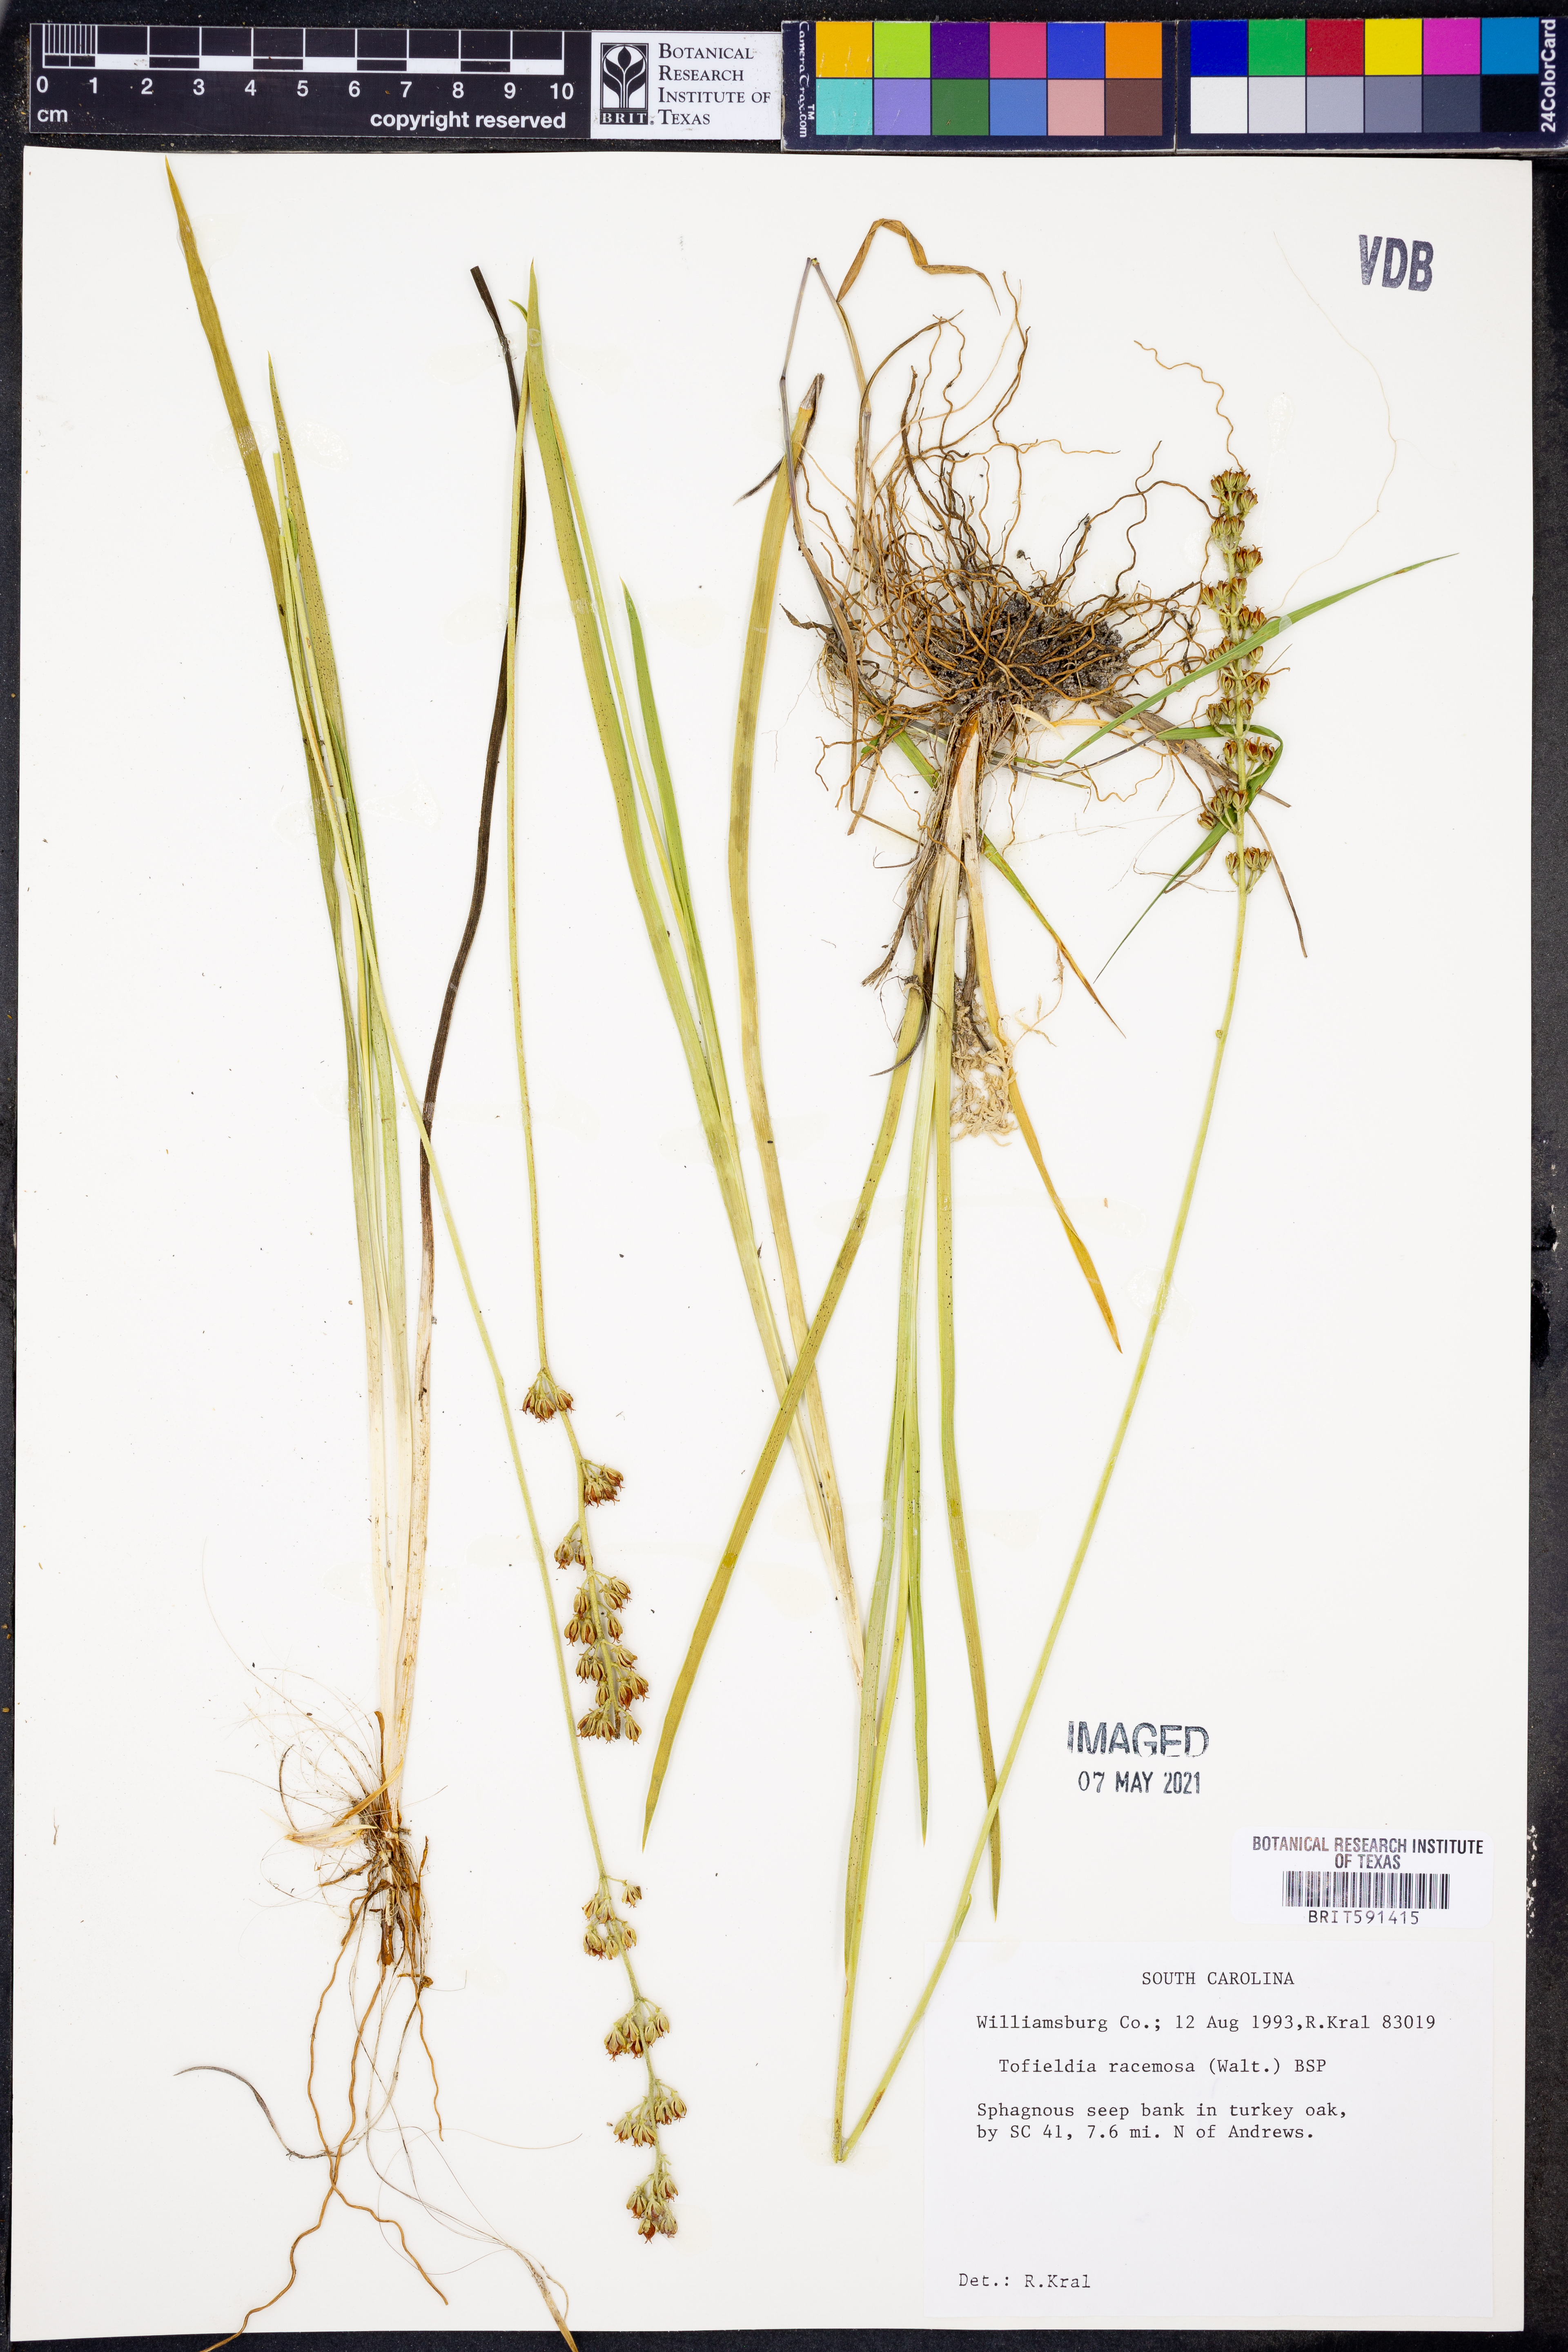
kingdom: Plantae
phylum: Tracheophyta
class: Liliopsida
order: Alismatales
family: Tofieldiaceae
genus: Triantha
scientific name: Triantha racemosa
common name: Coastal false asphodel
